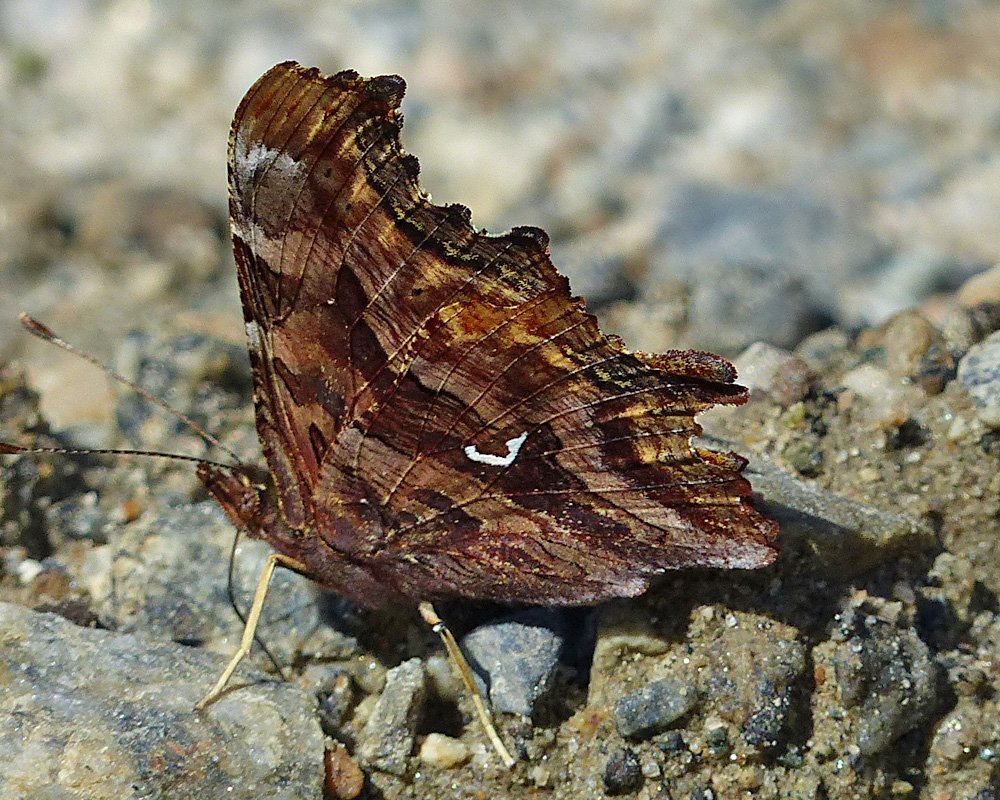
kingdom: Animalia
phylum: Arthropoda
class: Insecta
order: Lepidoptera
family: Nymphalidae
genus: Polygonia
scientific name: Polygonia satyrus
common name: Satyr Comma
